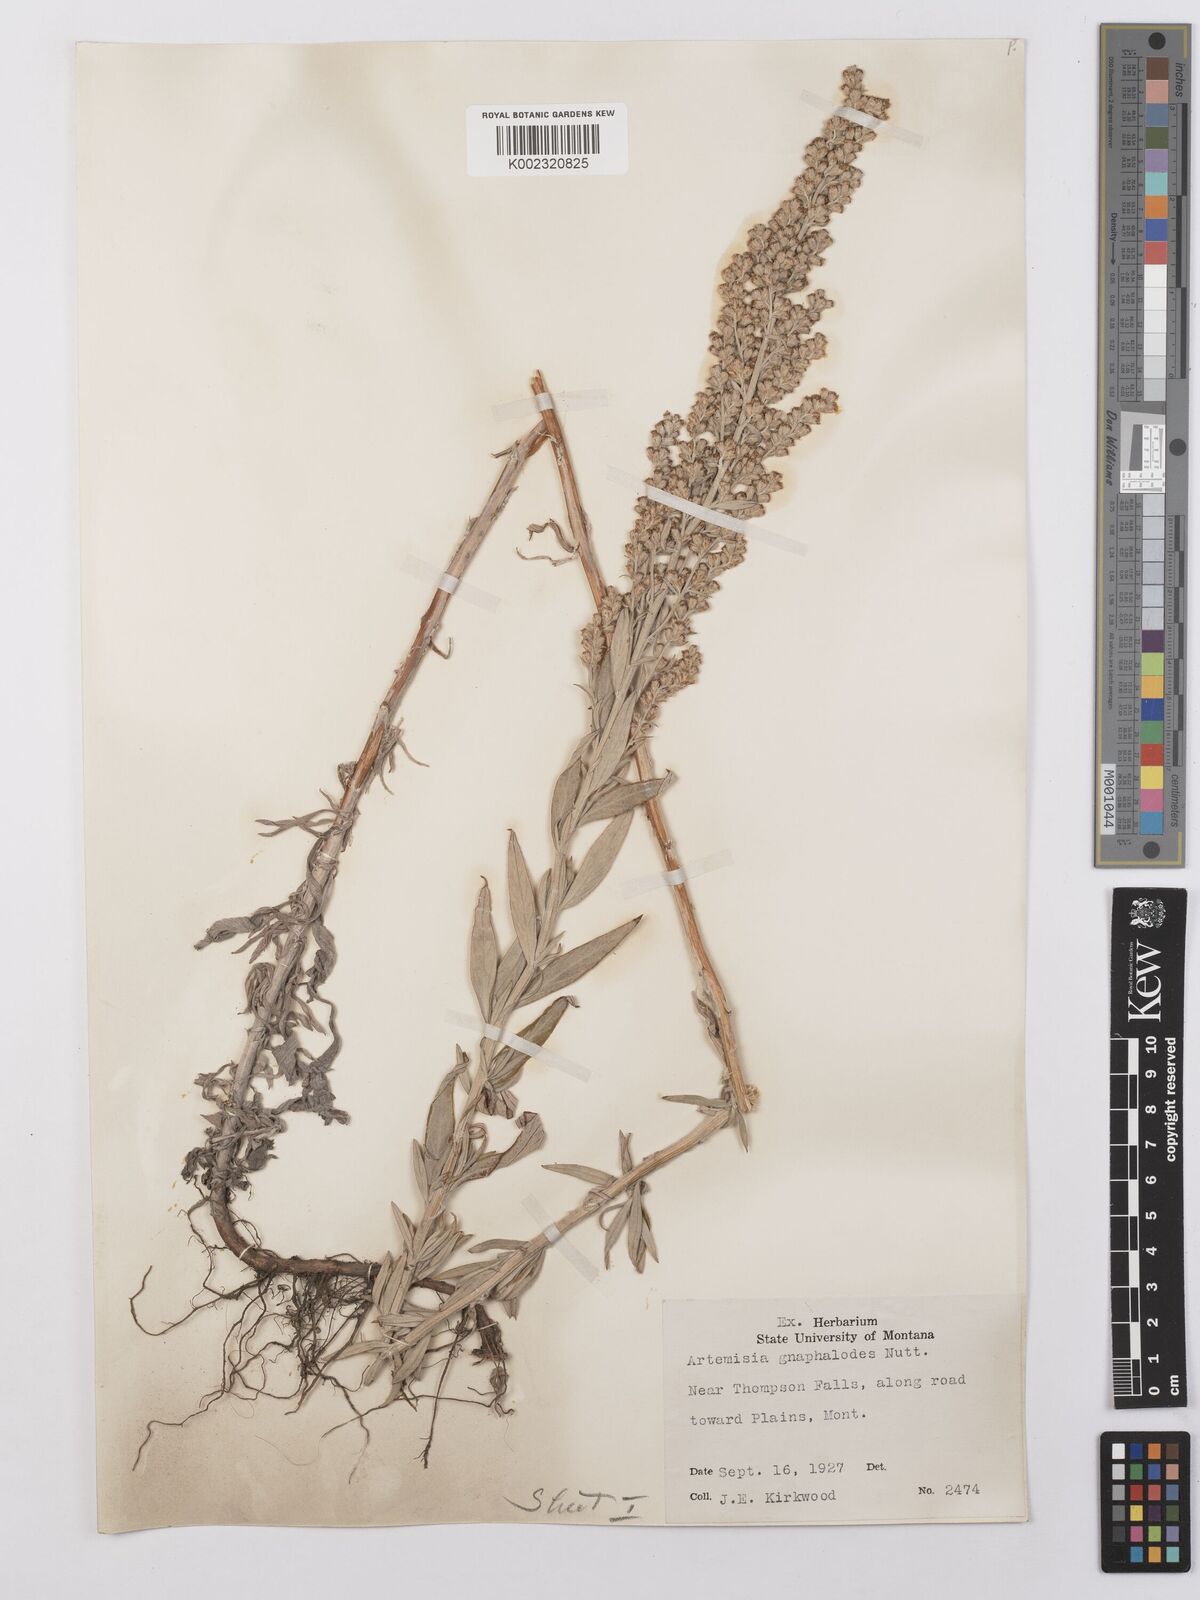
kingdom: Plantae
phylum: Tracheophyta
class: Magnoliopsida
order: Asterales
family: Asteraceae
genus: Artemisia
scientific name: Artemisia ludoviciana
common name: Western mugwort
